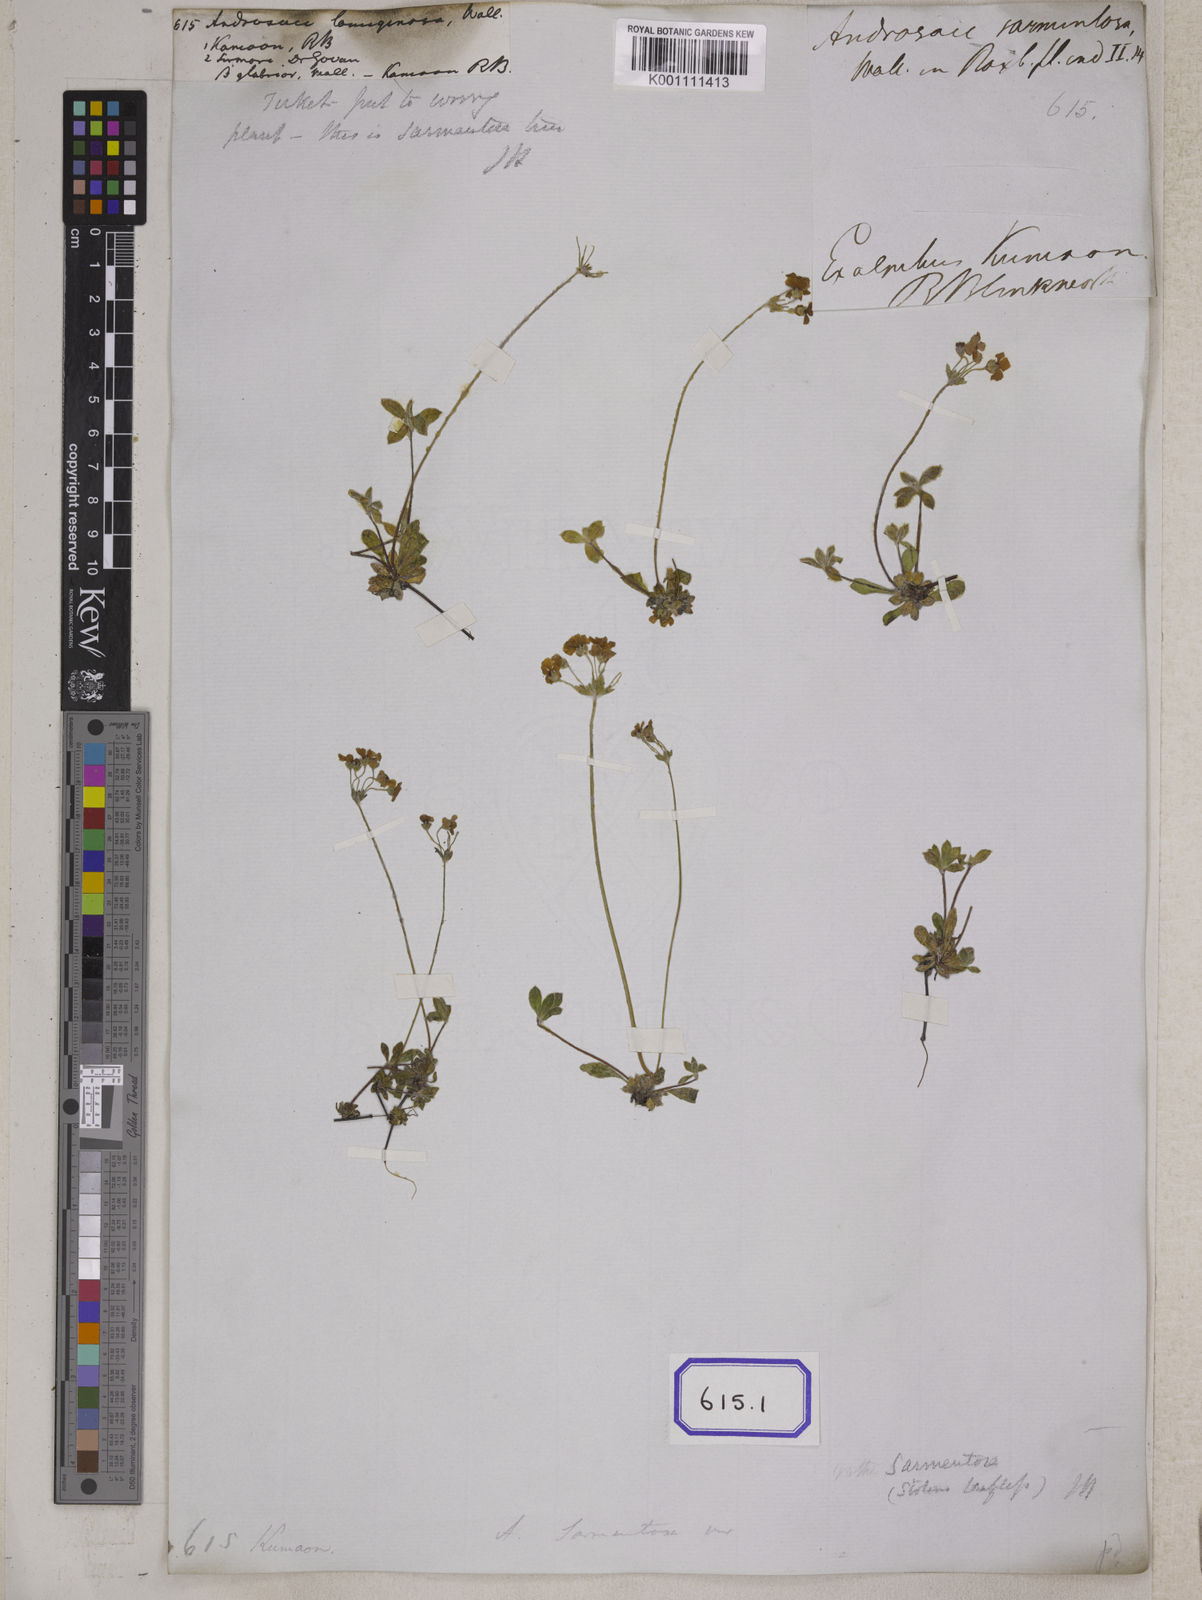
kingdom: Plantae
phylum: Tracheophyta
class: Magnoliopsida
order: Ericales
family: Primulaceae
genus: Androsace
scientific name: Androsace lanuginosa
